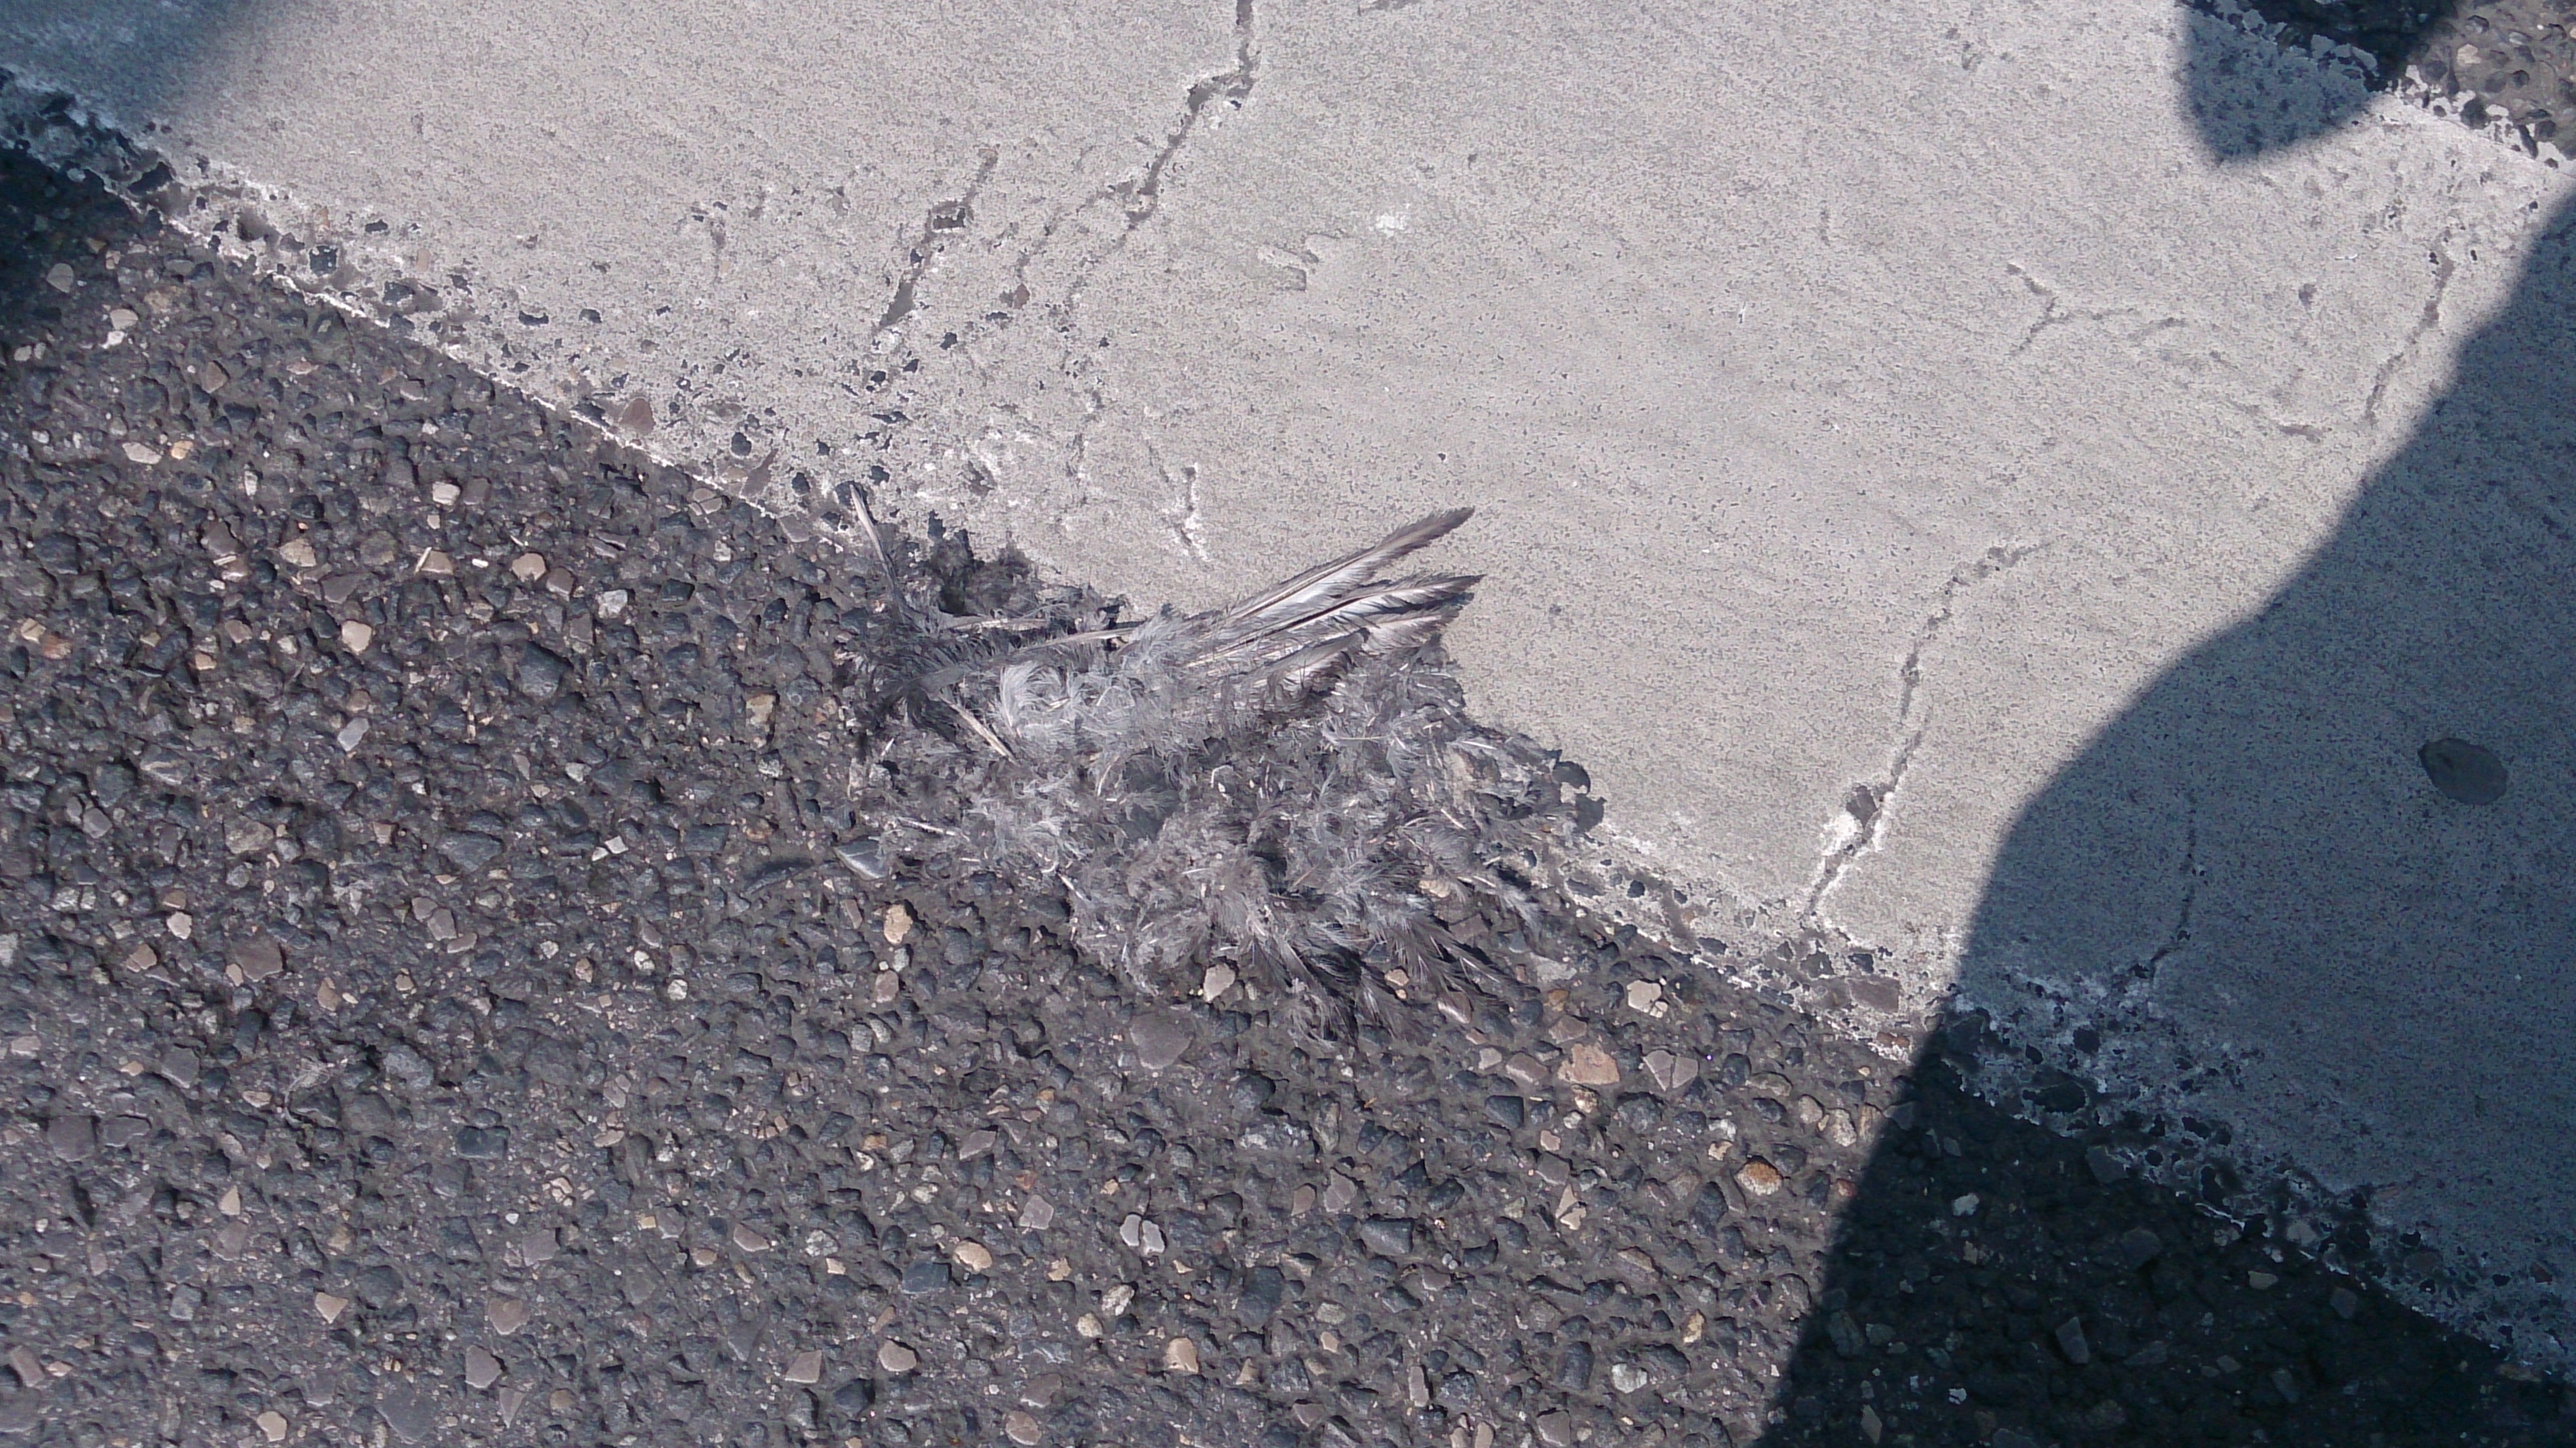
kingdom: Animalia
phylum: Chordata
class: Aves
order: Columbiformes
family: Columbidae
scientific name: Columbidae
